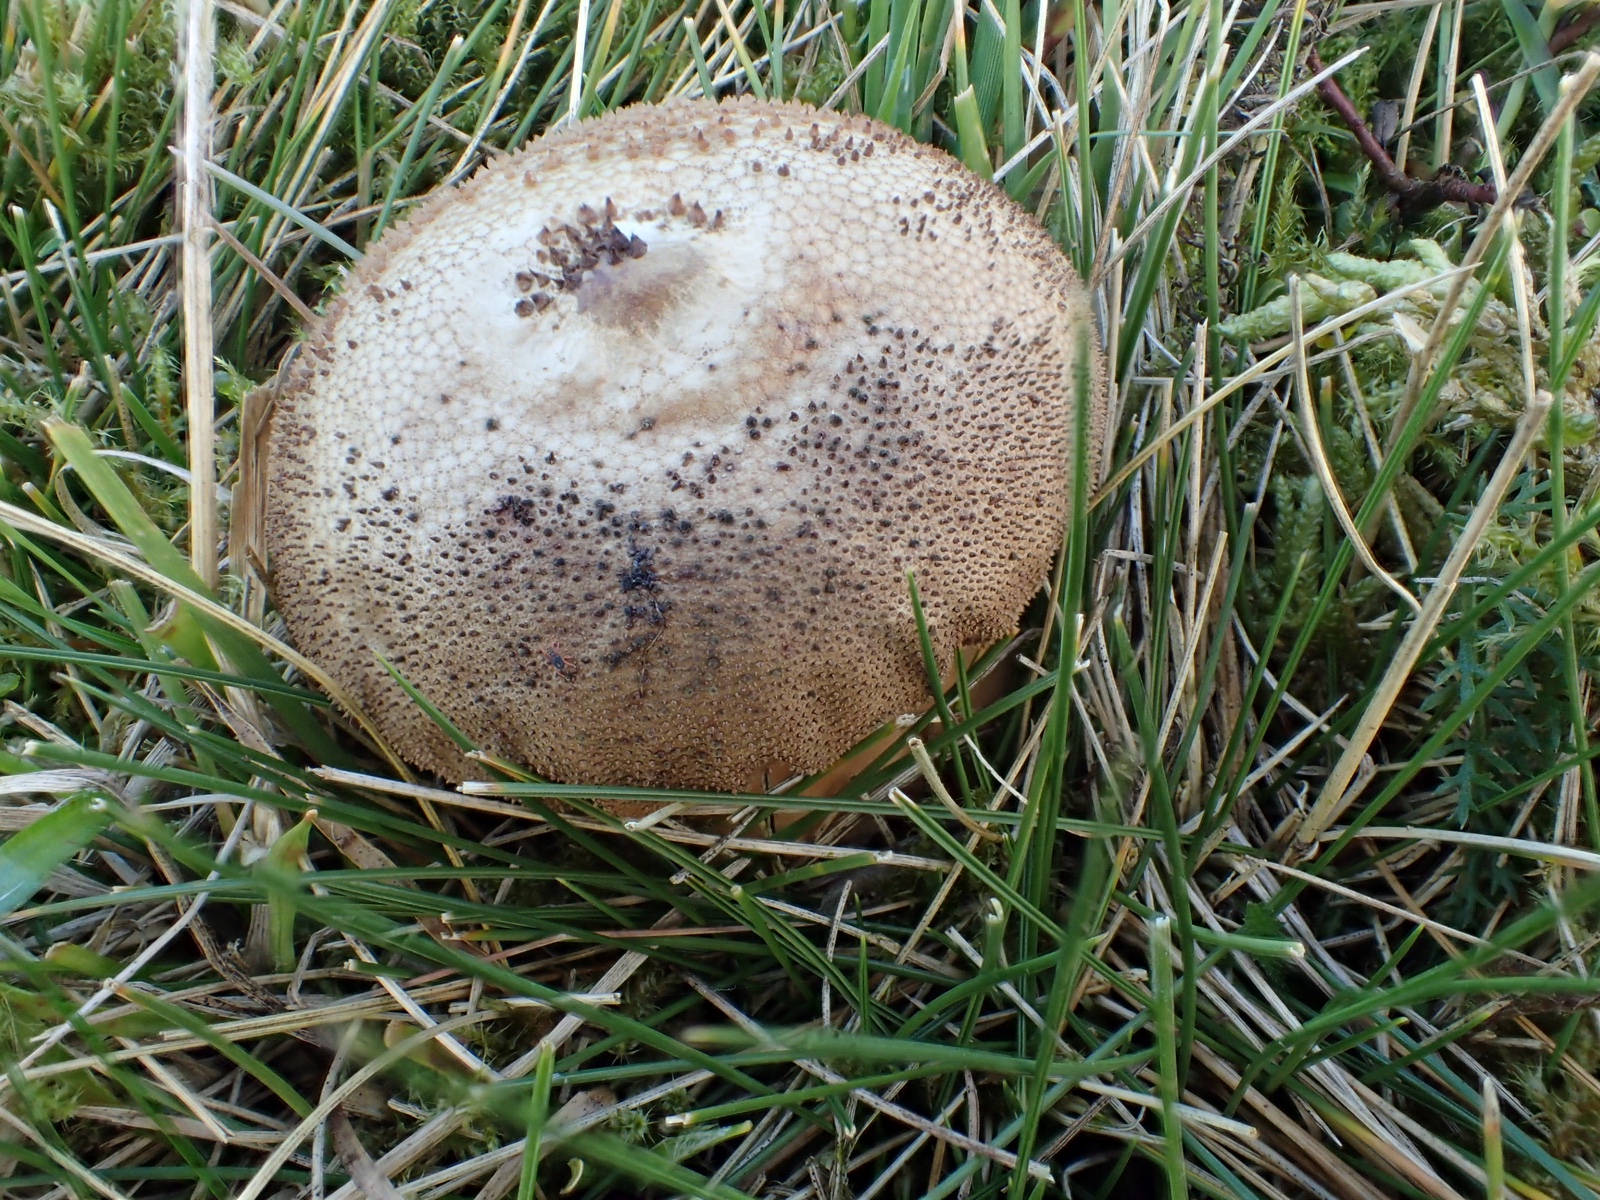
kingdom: Fungi
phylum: Basidiomycota
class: Agaricomycetes
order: Agaricales
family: Lycoperdaceae
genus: Lycoperdon
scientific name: Lycoperdon perlatum
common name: krystal-støvbold
